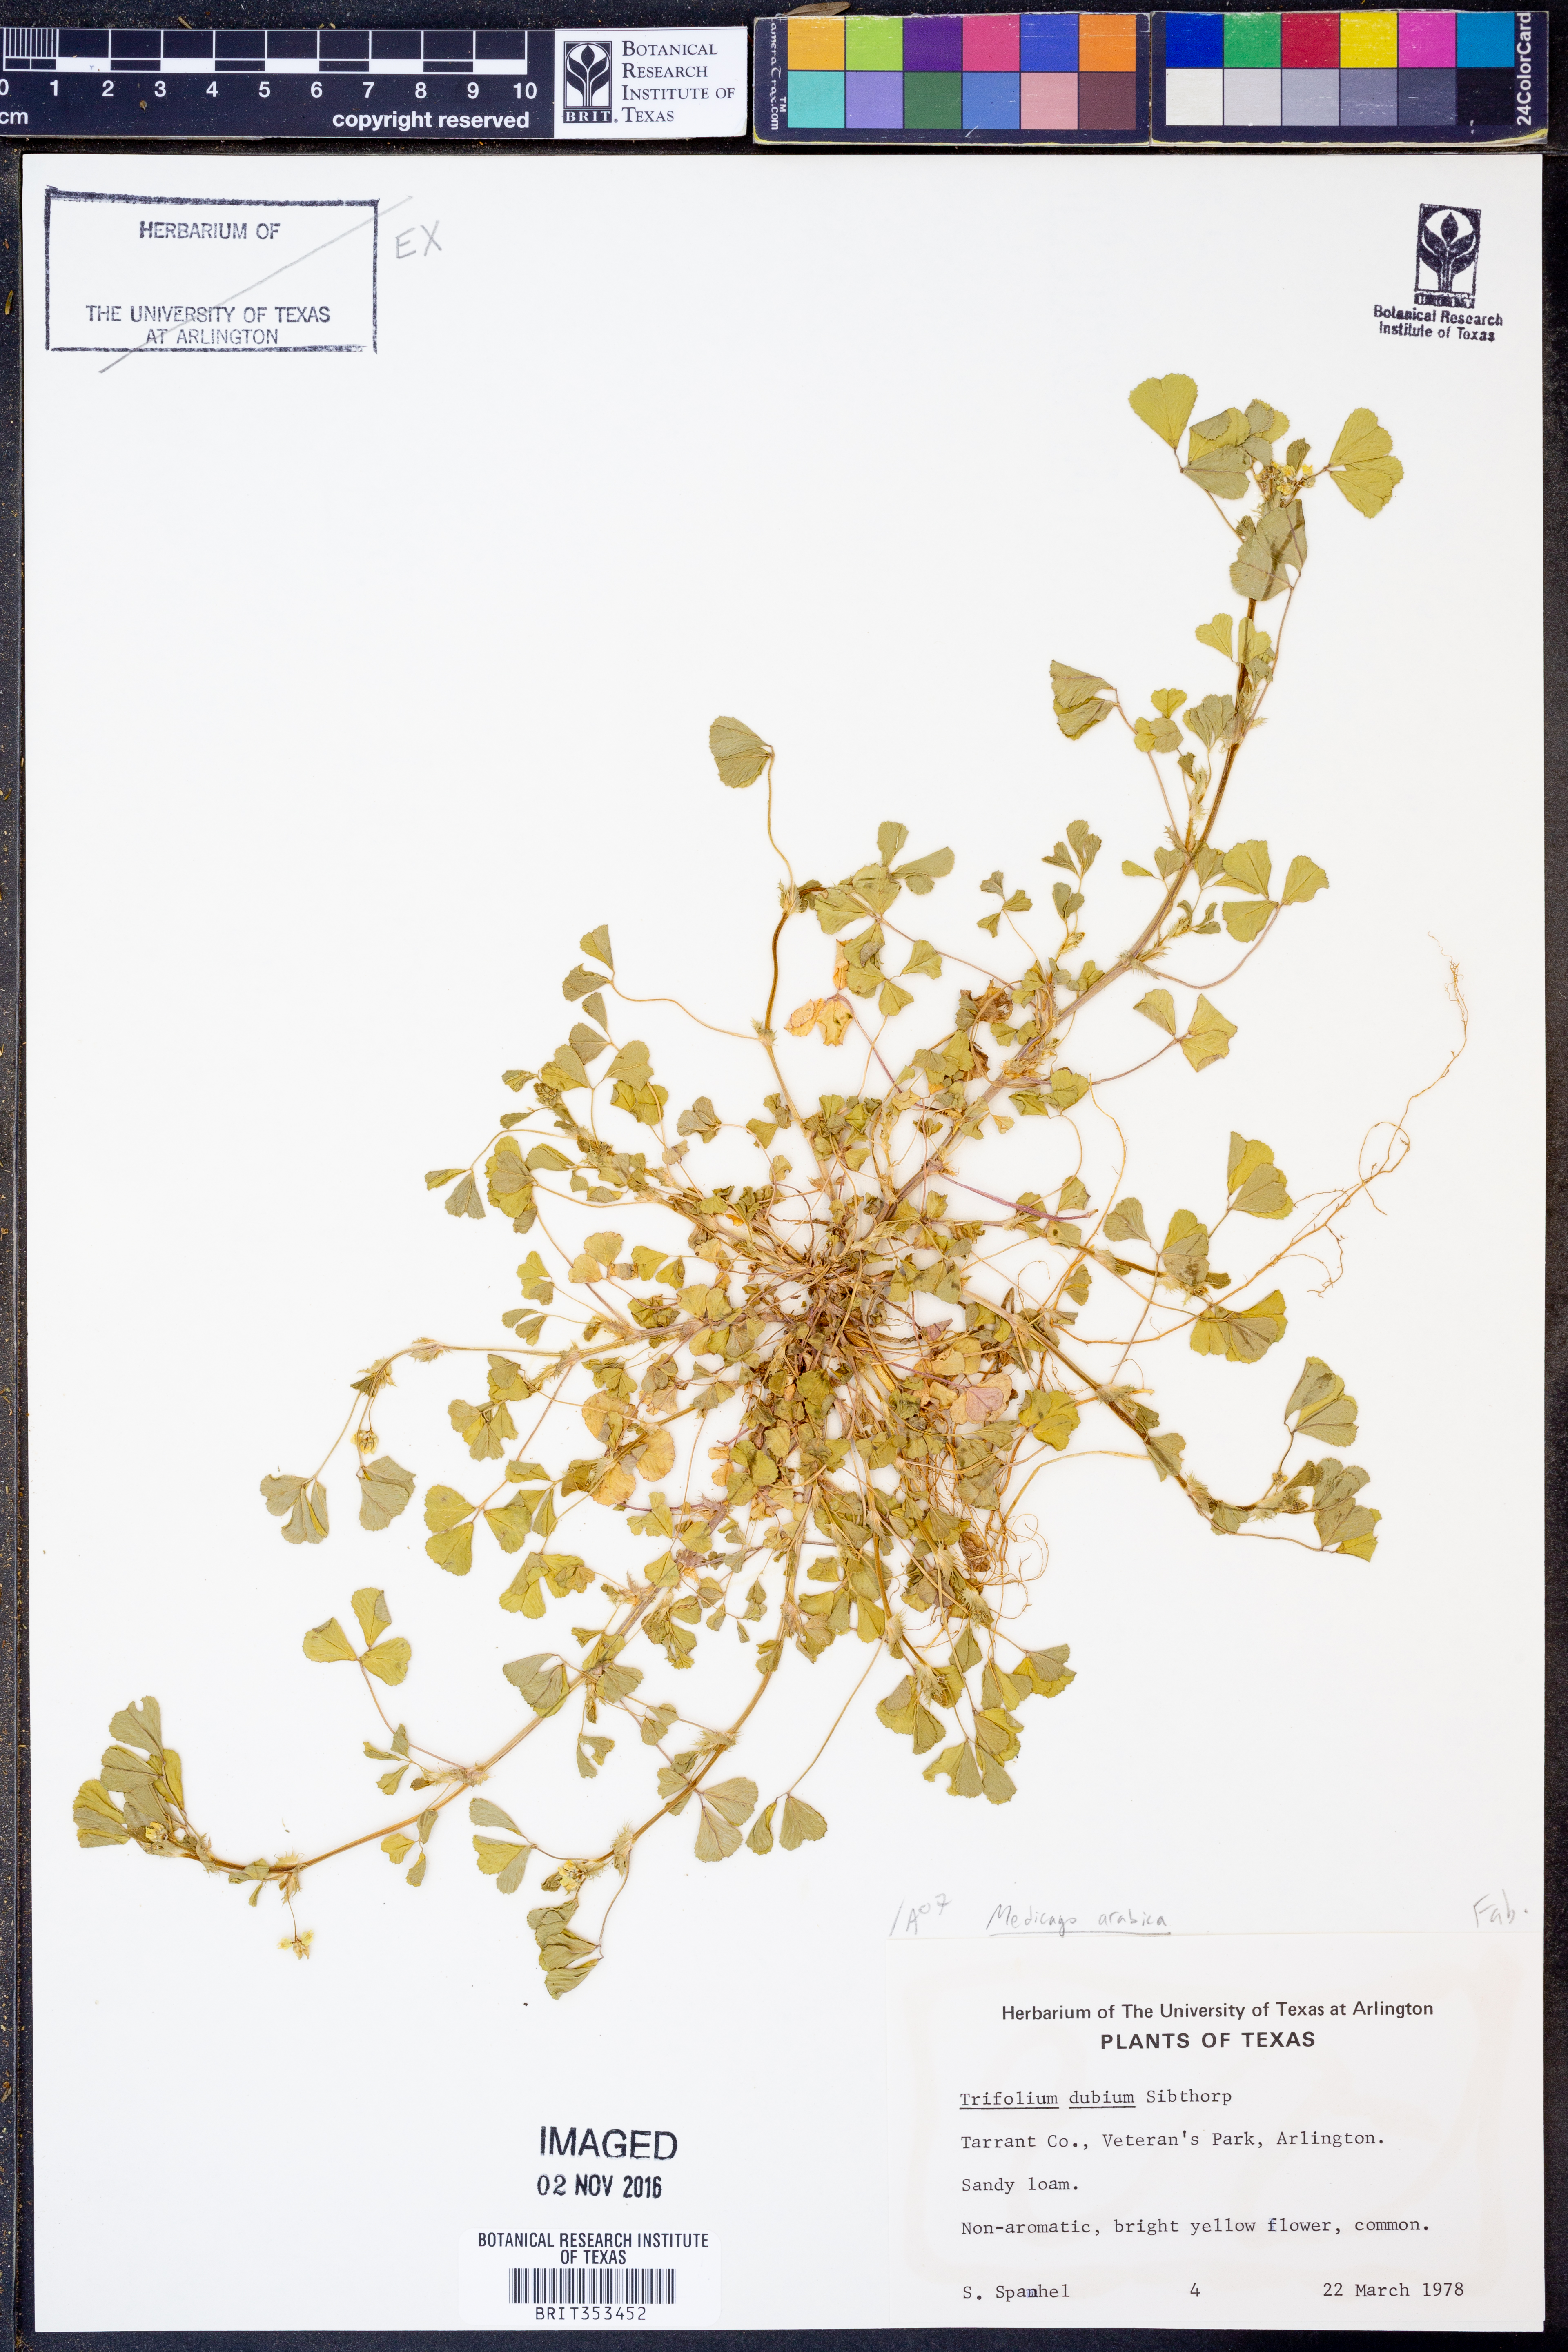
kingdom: Plantae
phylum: Tracheophyta
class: Magnoliopsida
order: Fabales
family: Fabaceae
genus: Medicago
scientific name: Medicago arabica
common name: Spotted medick
